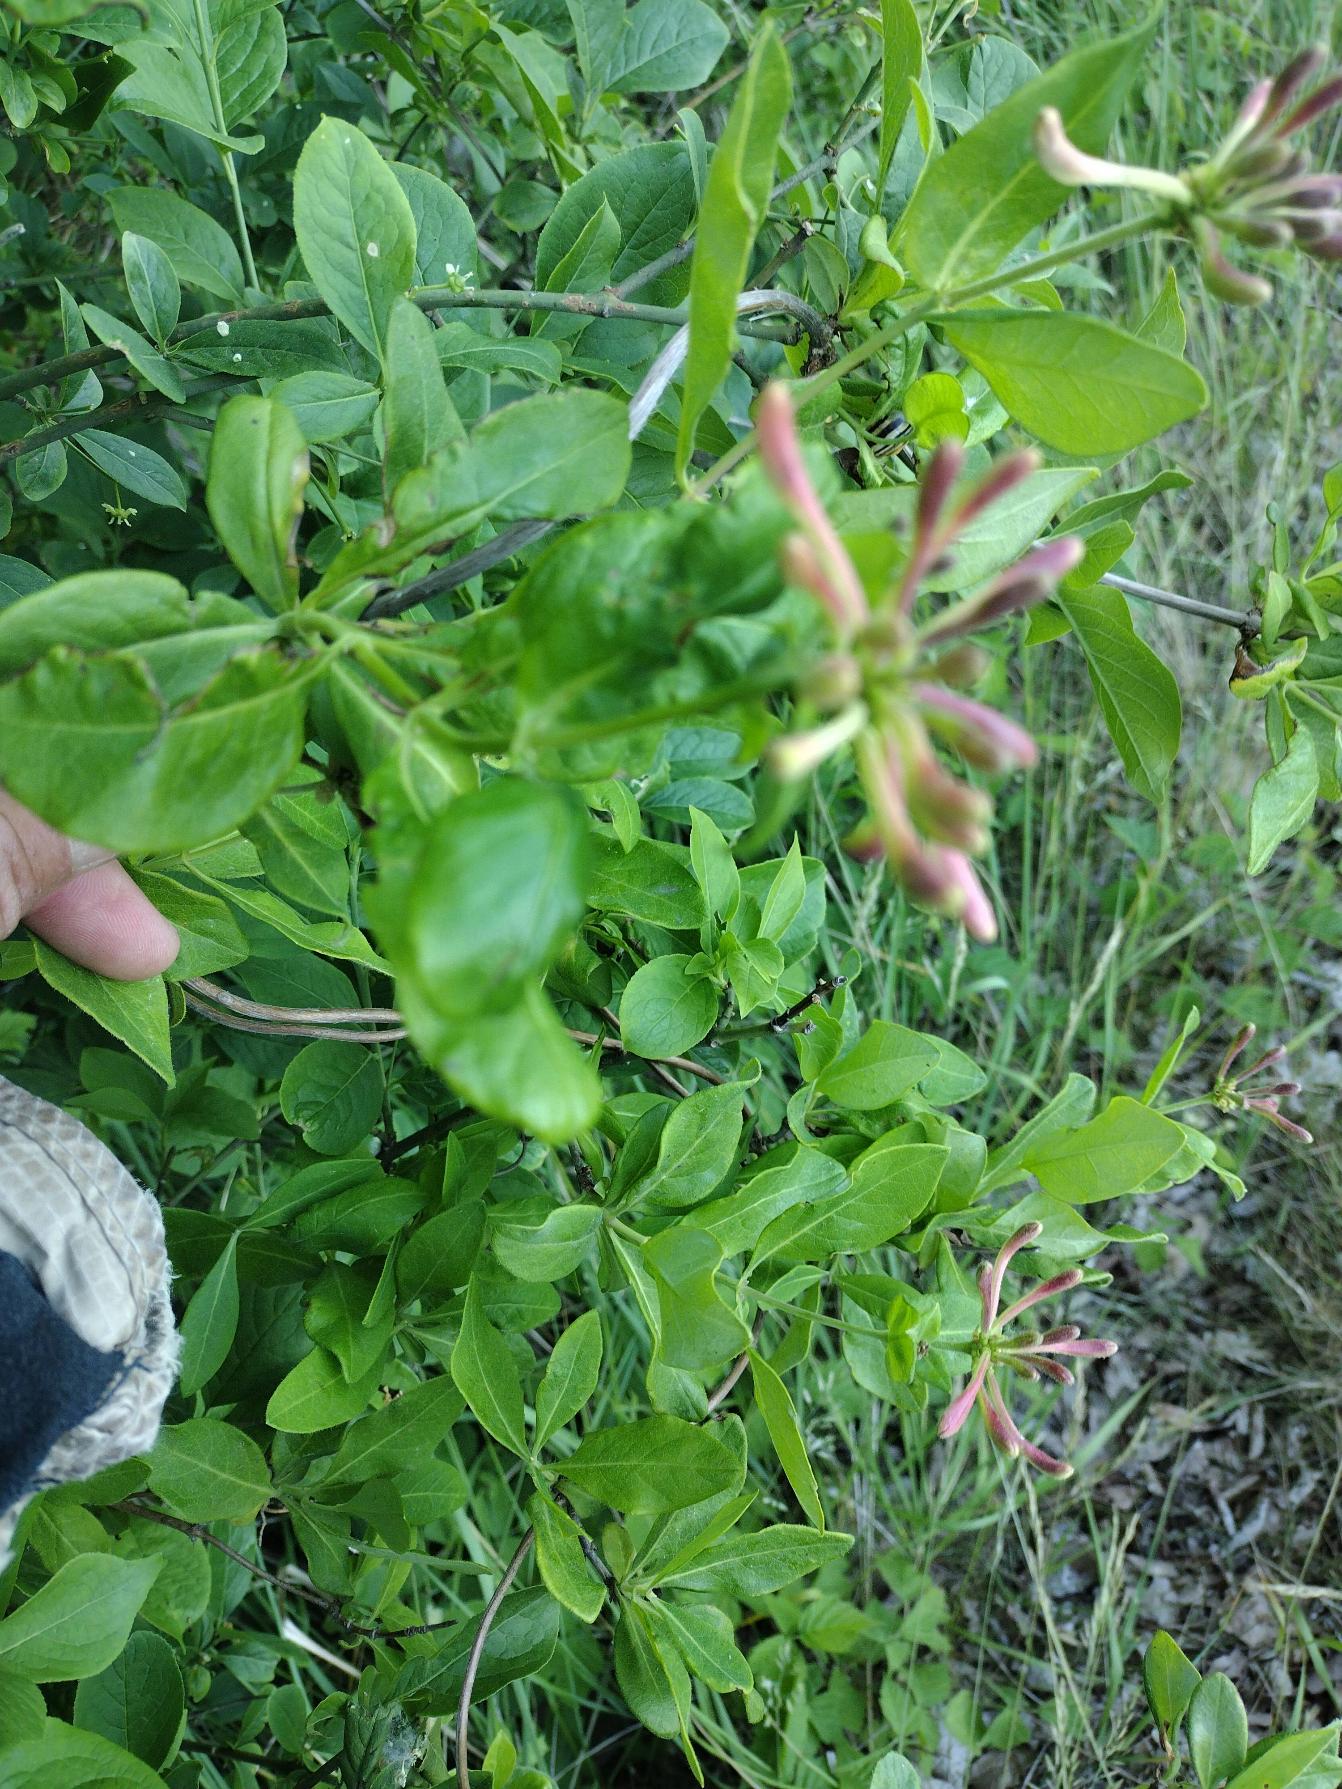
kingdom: Plantae
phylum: Tracheophyta
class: Magnoliopsida
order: Dipsacales
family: Caprifoliaceae
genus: Lonicera
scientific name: Lonicera periclymenum
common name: Almindelig gedeblad
